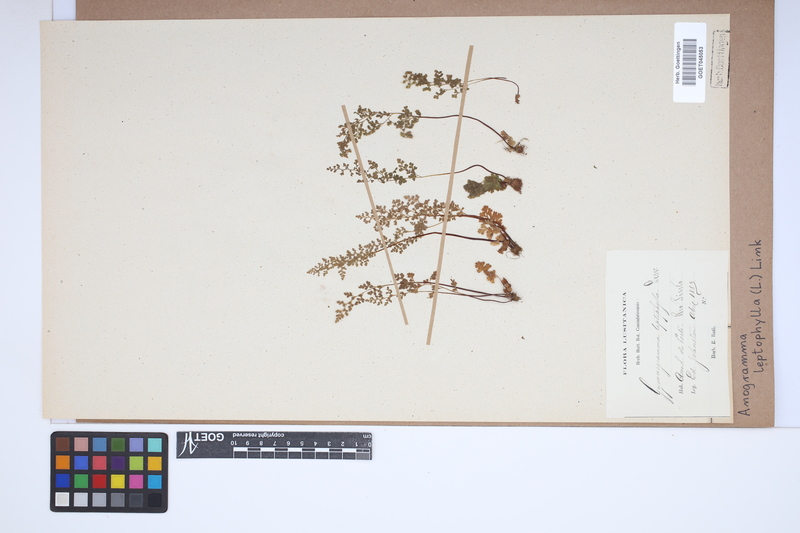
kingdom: Plantae
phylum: Tracheophyta
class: Polypodiopsida
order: Polypodiales
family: Pteridaceae
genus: Anogramma
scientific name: Anogramma leptophylla
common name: Jersey fern
